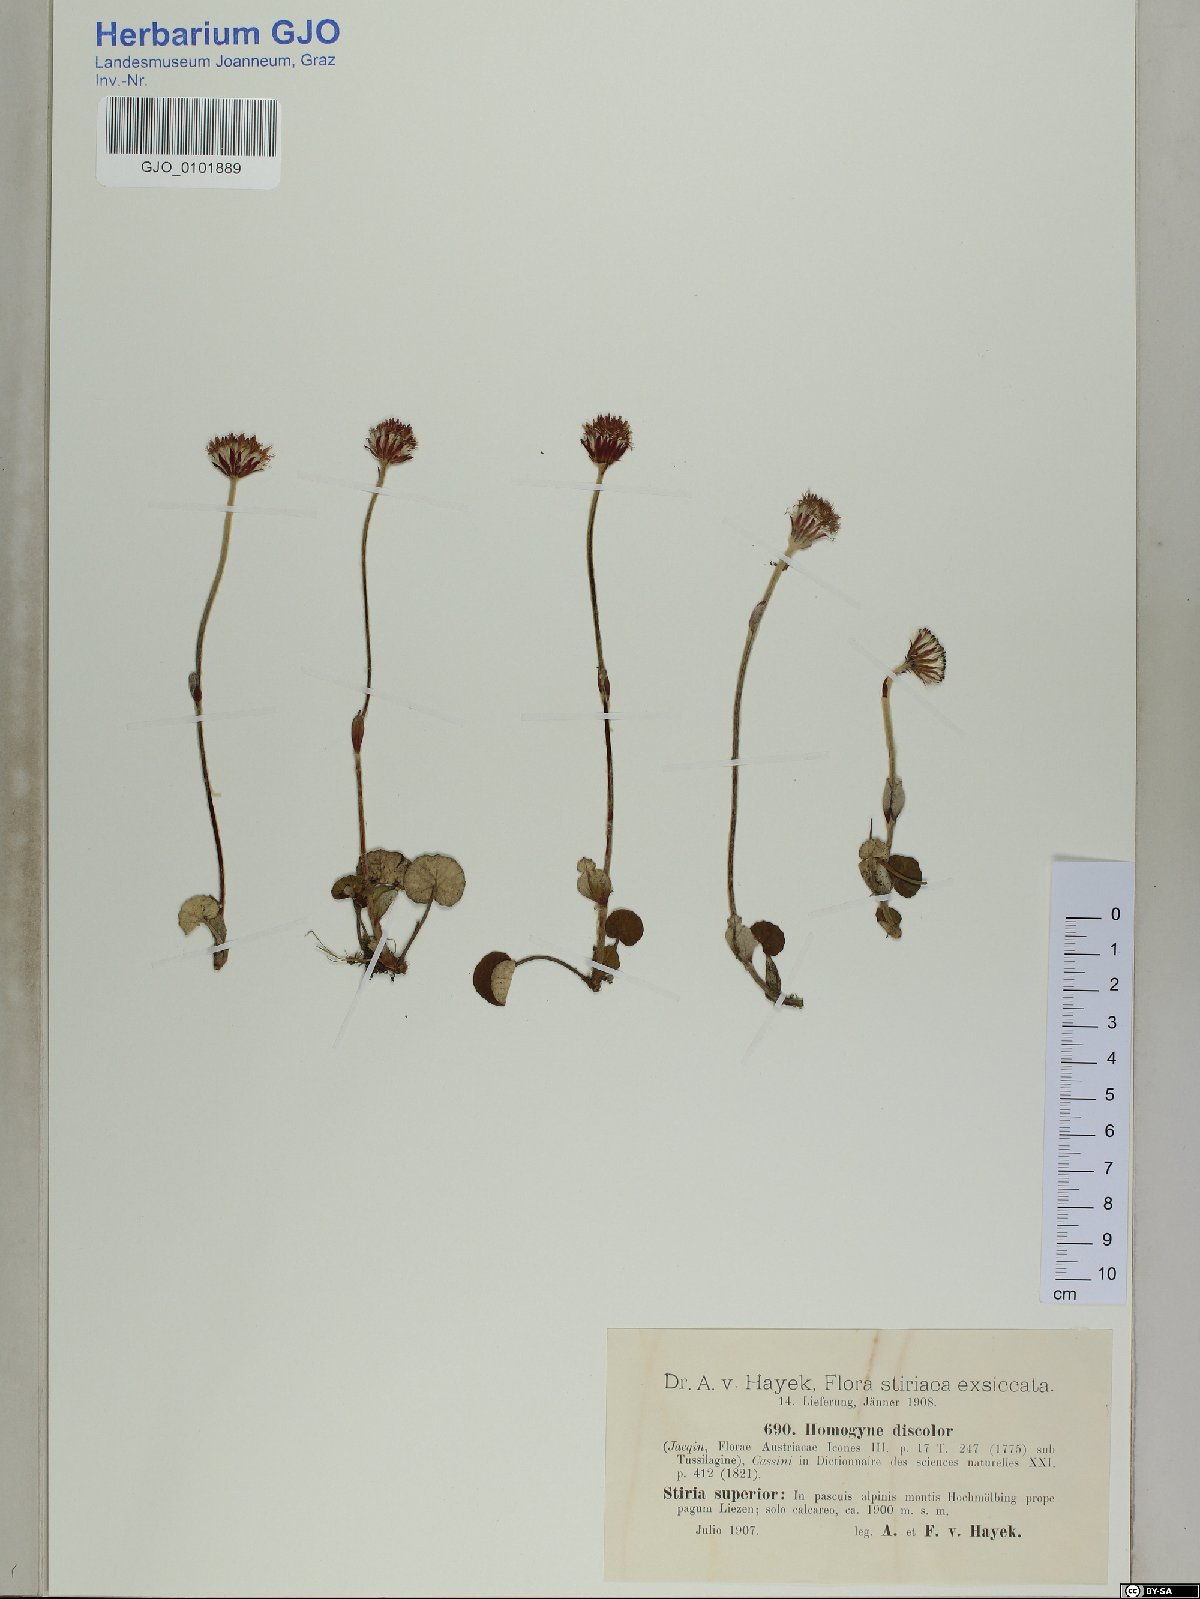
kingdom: Plantae
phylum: Tracheophyta
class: Magnoliopsida
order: Asterales
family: Asteraceae
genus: Homogyne
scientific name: Homogyne discolor
